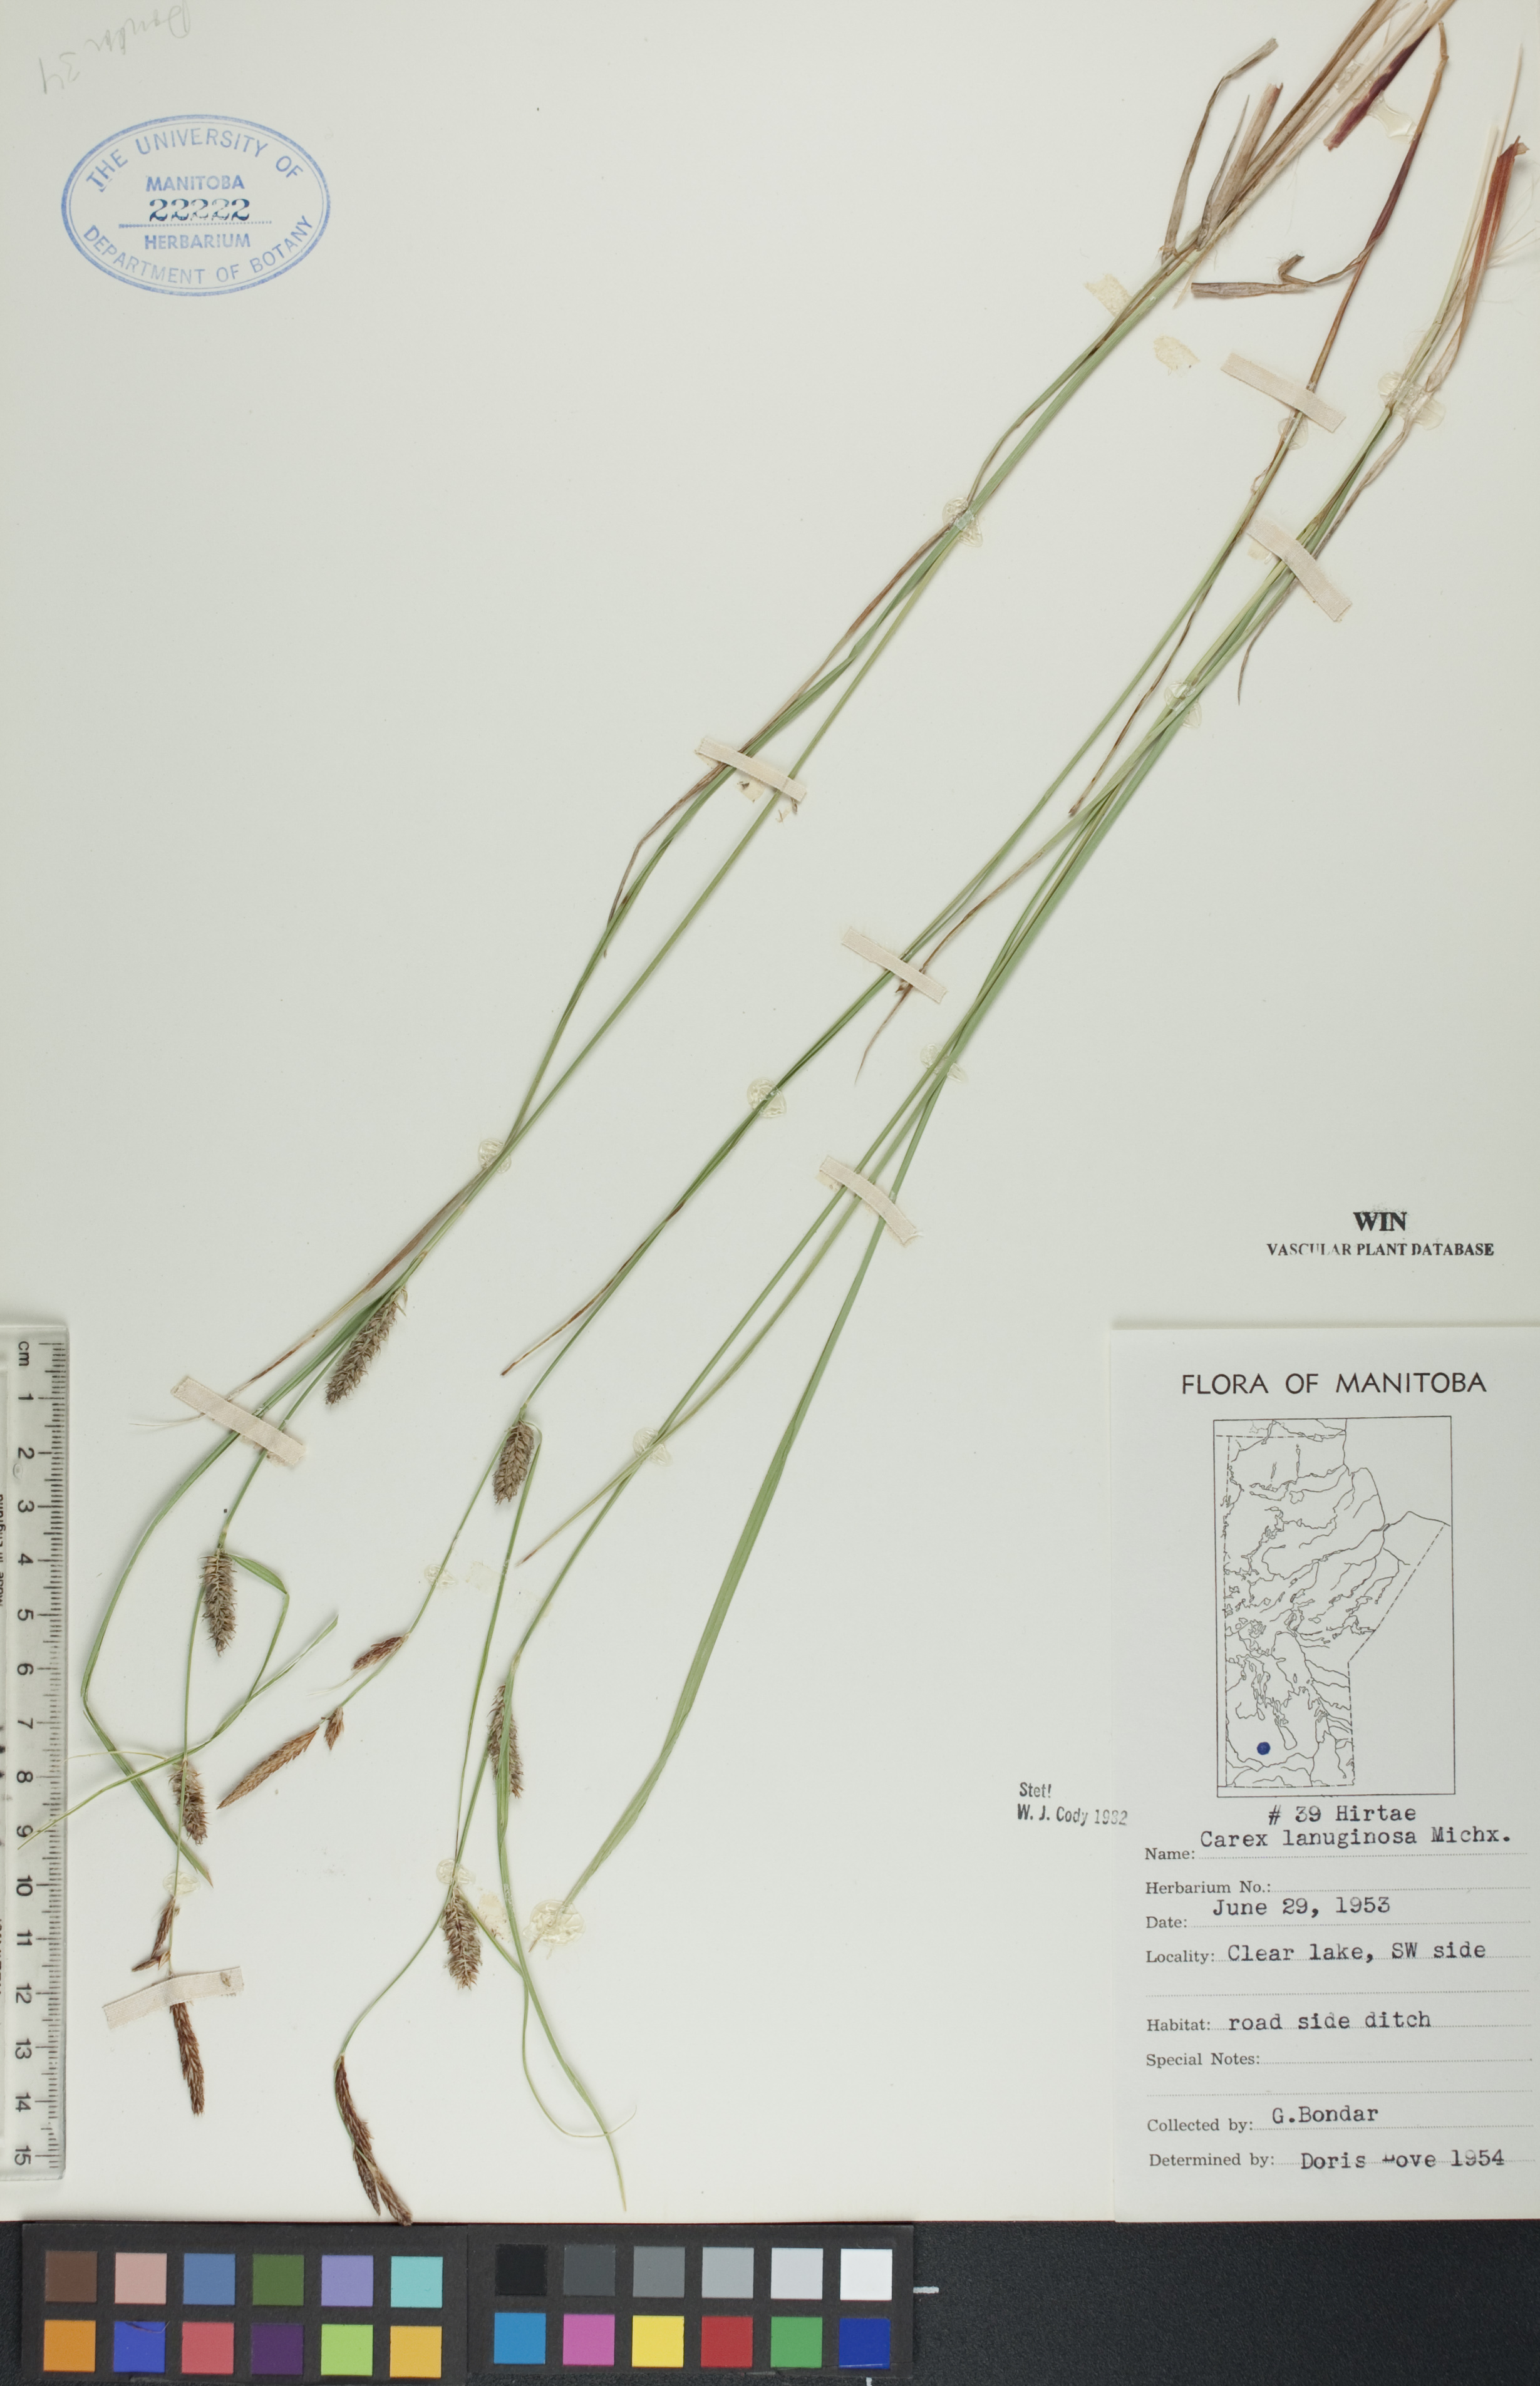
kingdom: Plantae
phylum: Tracheophyta
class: Liliopsida
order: Poales
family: Cyperaceae
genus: Carex
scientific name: Carex lasiocarpa
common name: Slender sedge
